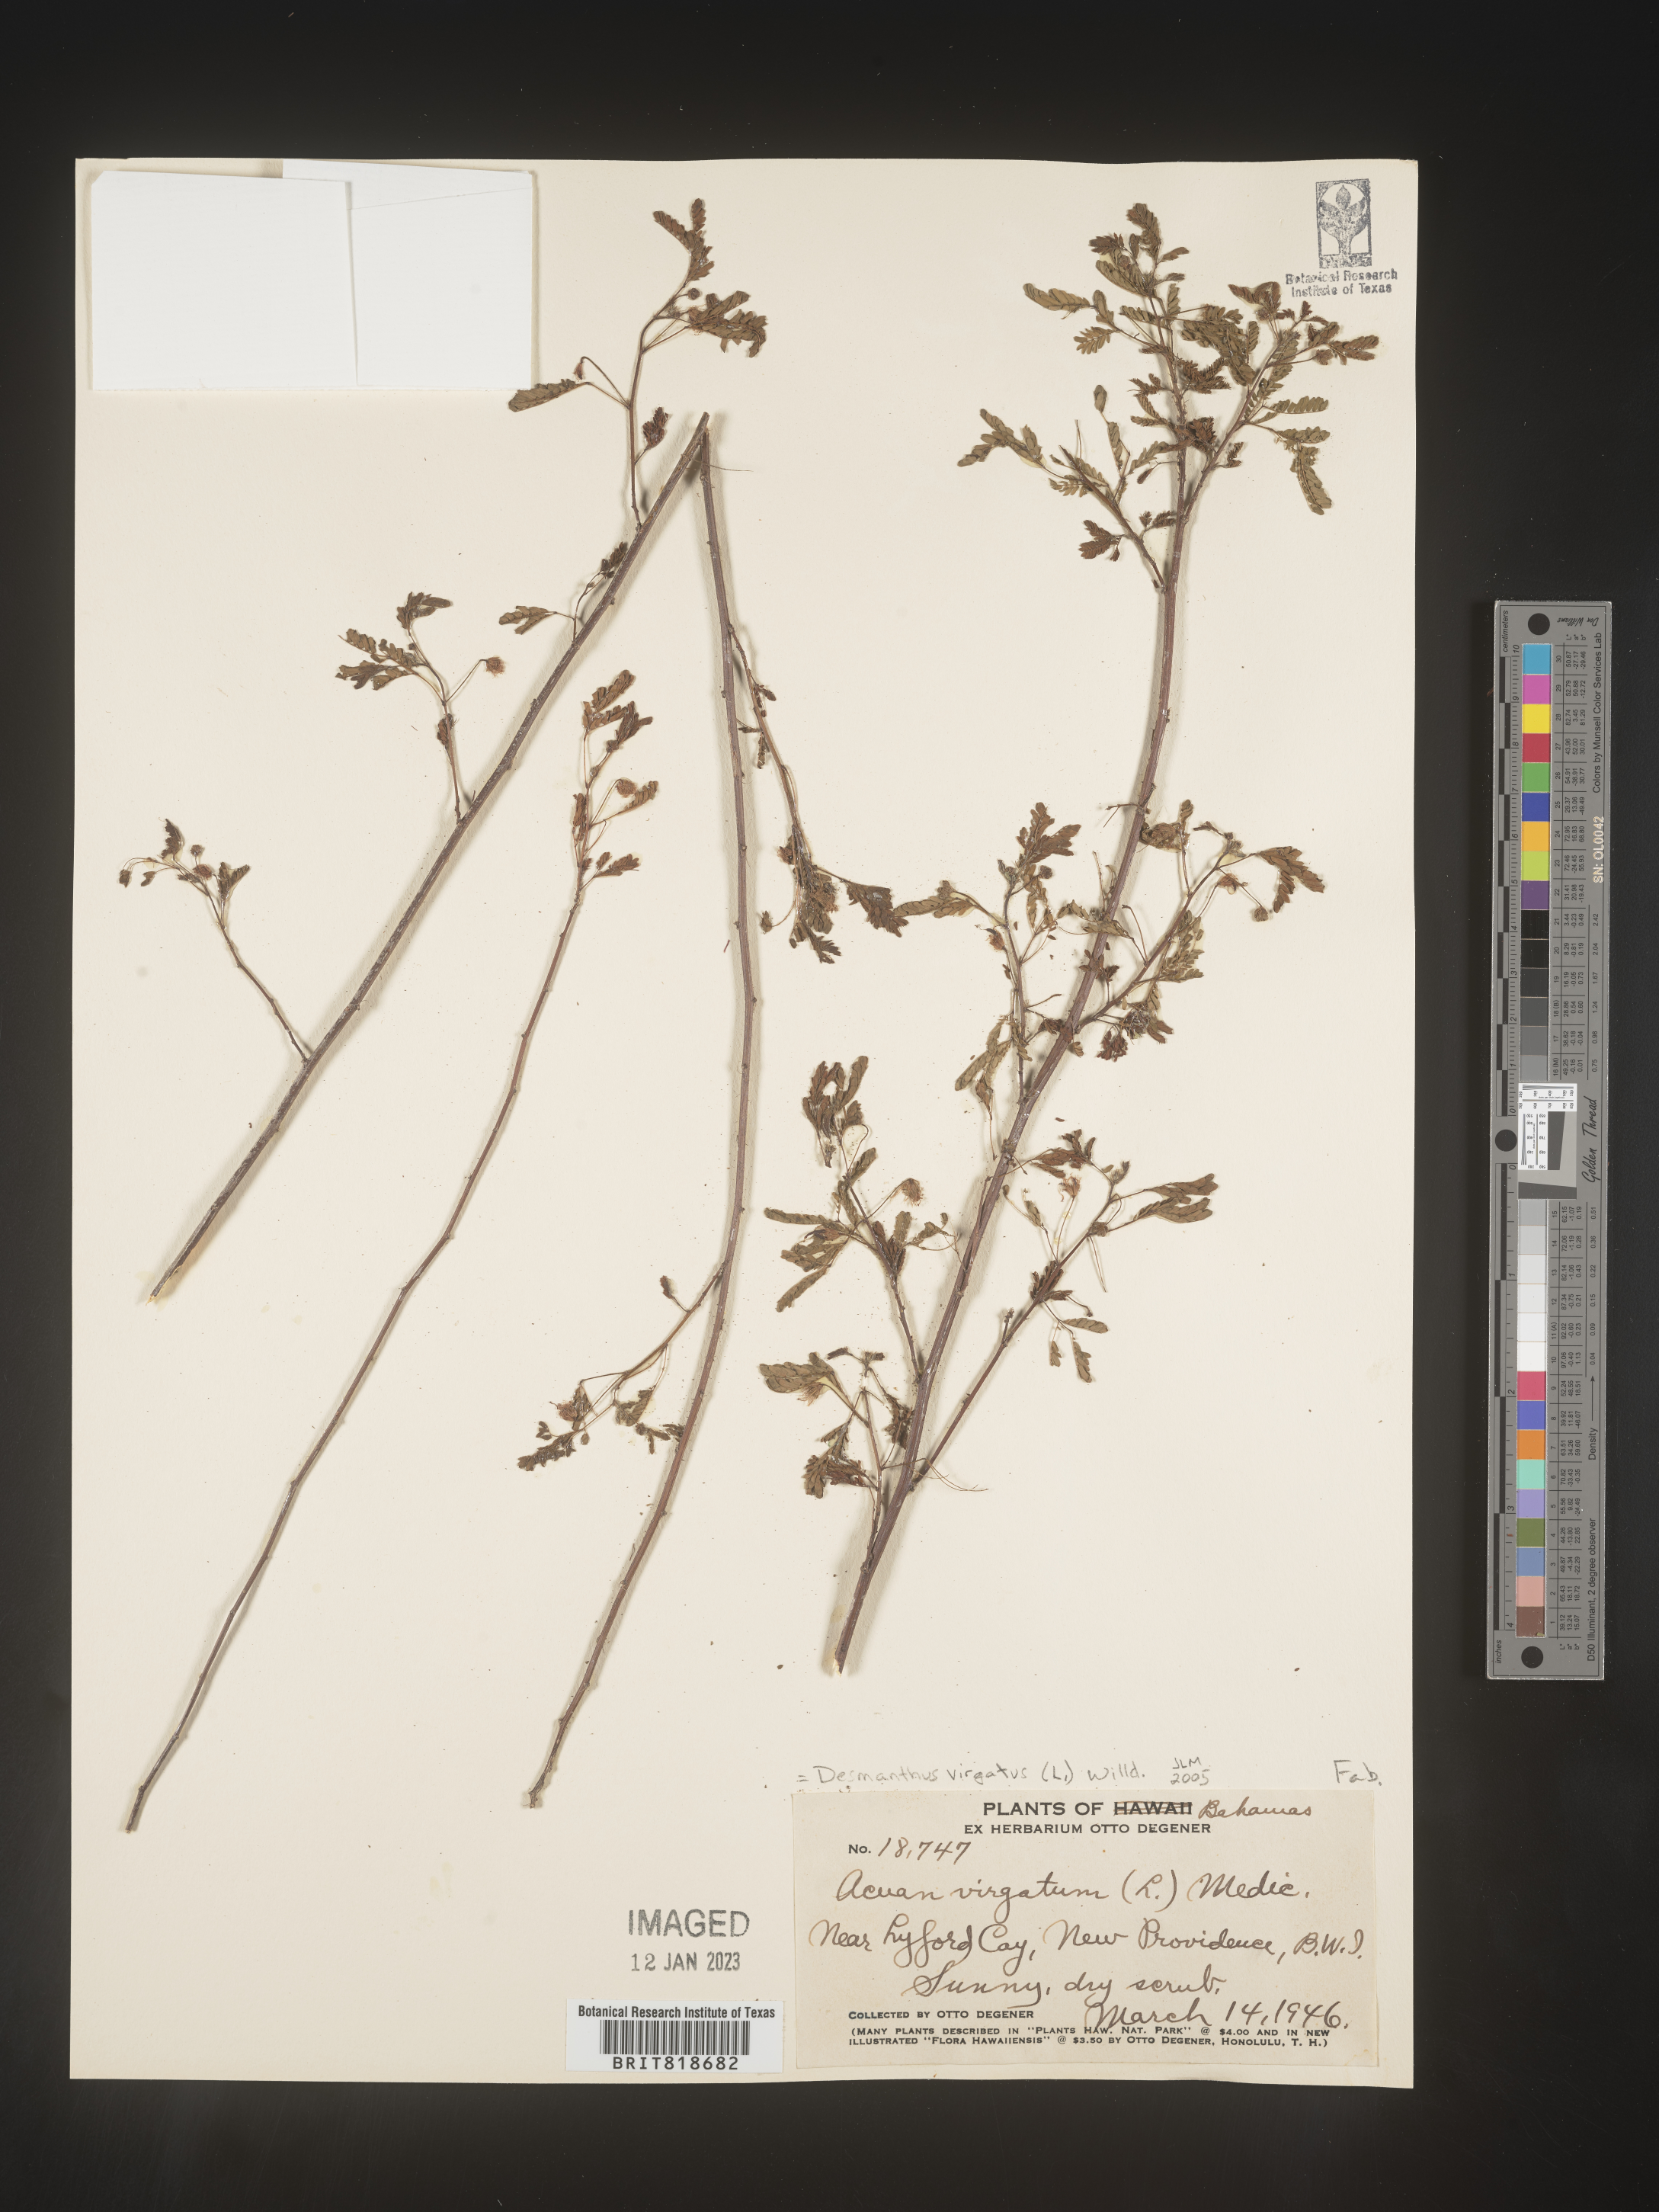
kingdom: Plantae
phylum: Tracheophyta
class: Magnoliopsida
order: Fabales
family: Fabaceae
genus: Desmanthus
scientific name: Desmanthus
